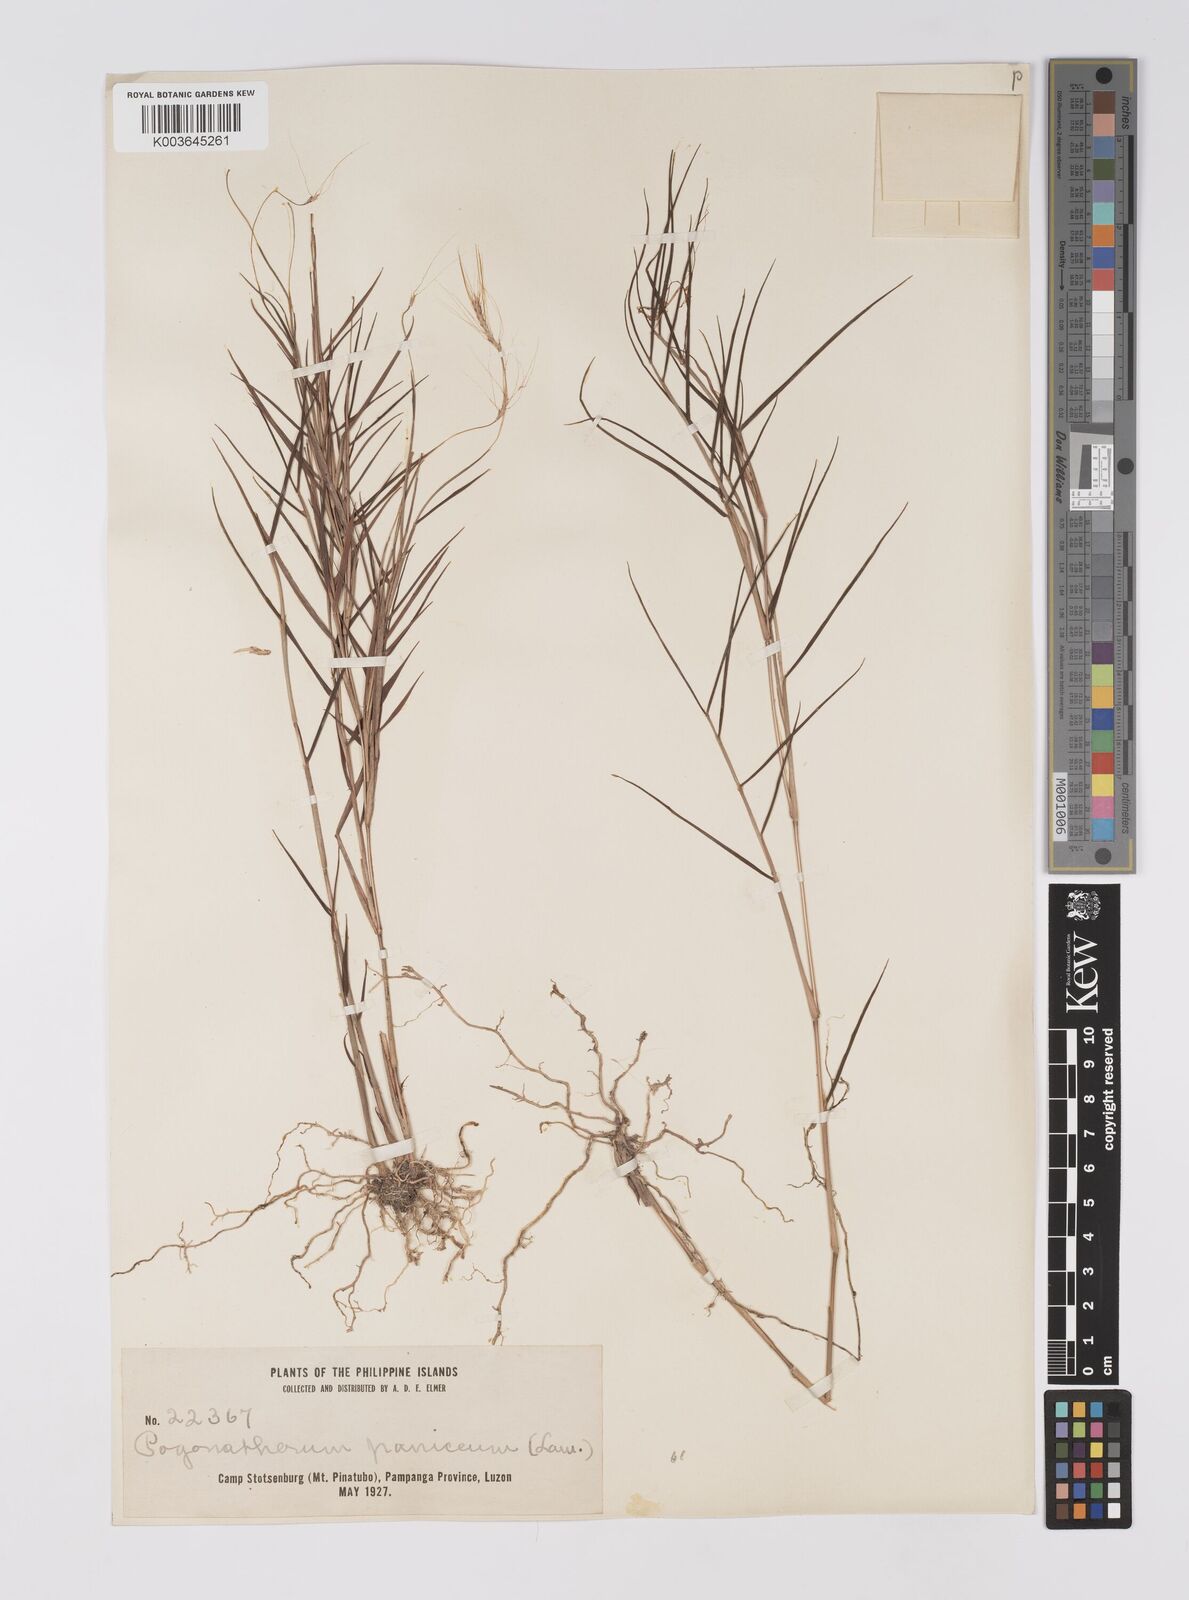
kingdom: Plantae
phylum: Tracheophyta
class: Liliopsida
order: Poales
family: Poaceae
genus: Pogonatherum
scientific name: Pogonatherum paniceum
